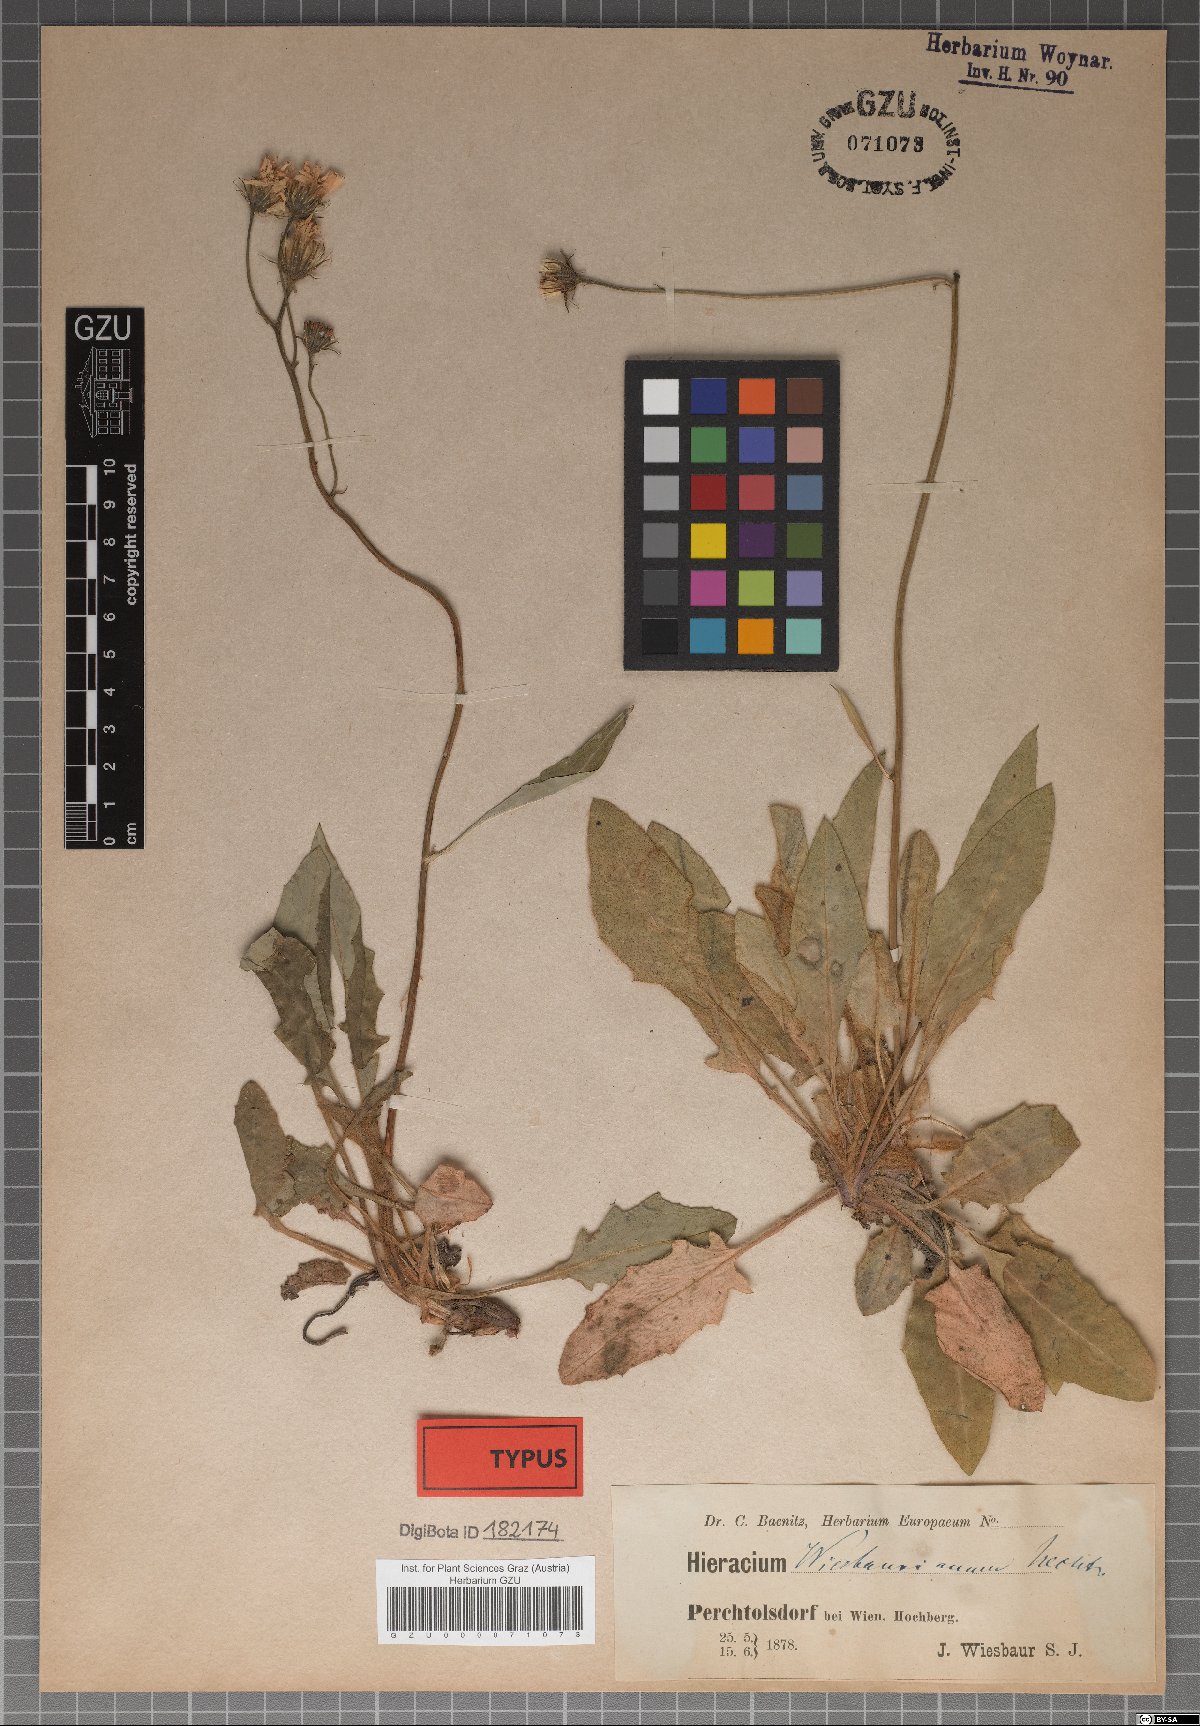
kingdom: Plantae
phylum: Tracheophyta
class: Magnoliopsida
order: Asterales
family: Asteraceae
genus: Hieracium
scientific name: Hieracium hypochoeroides
